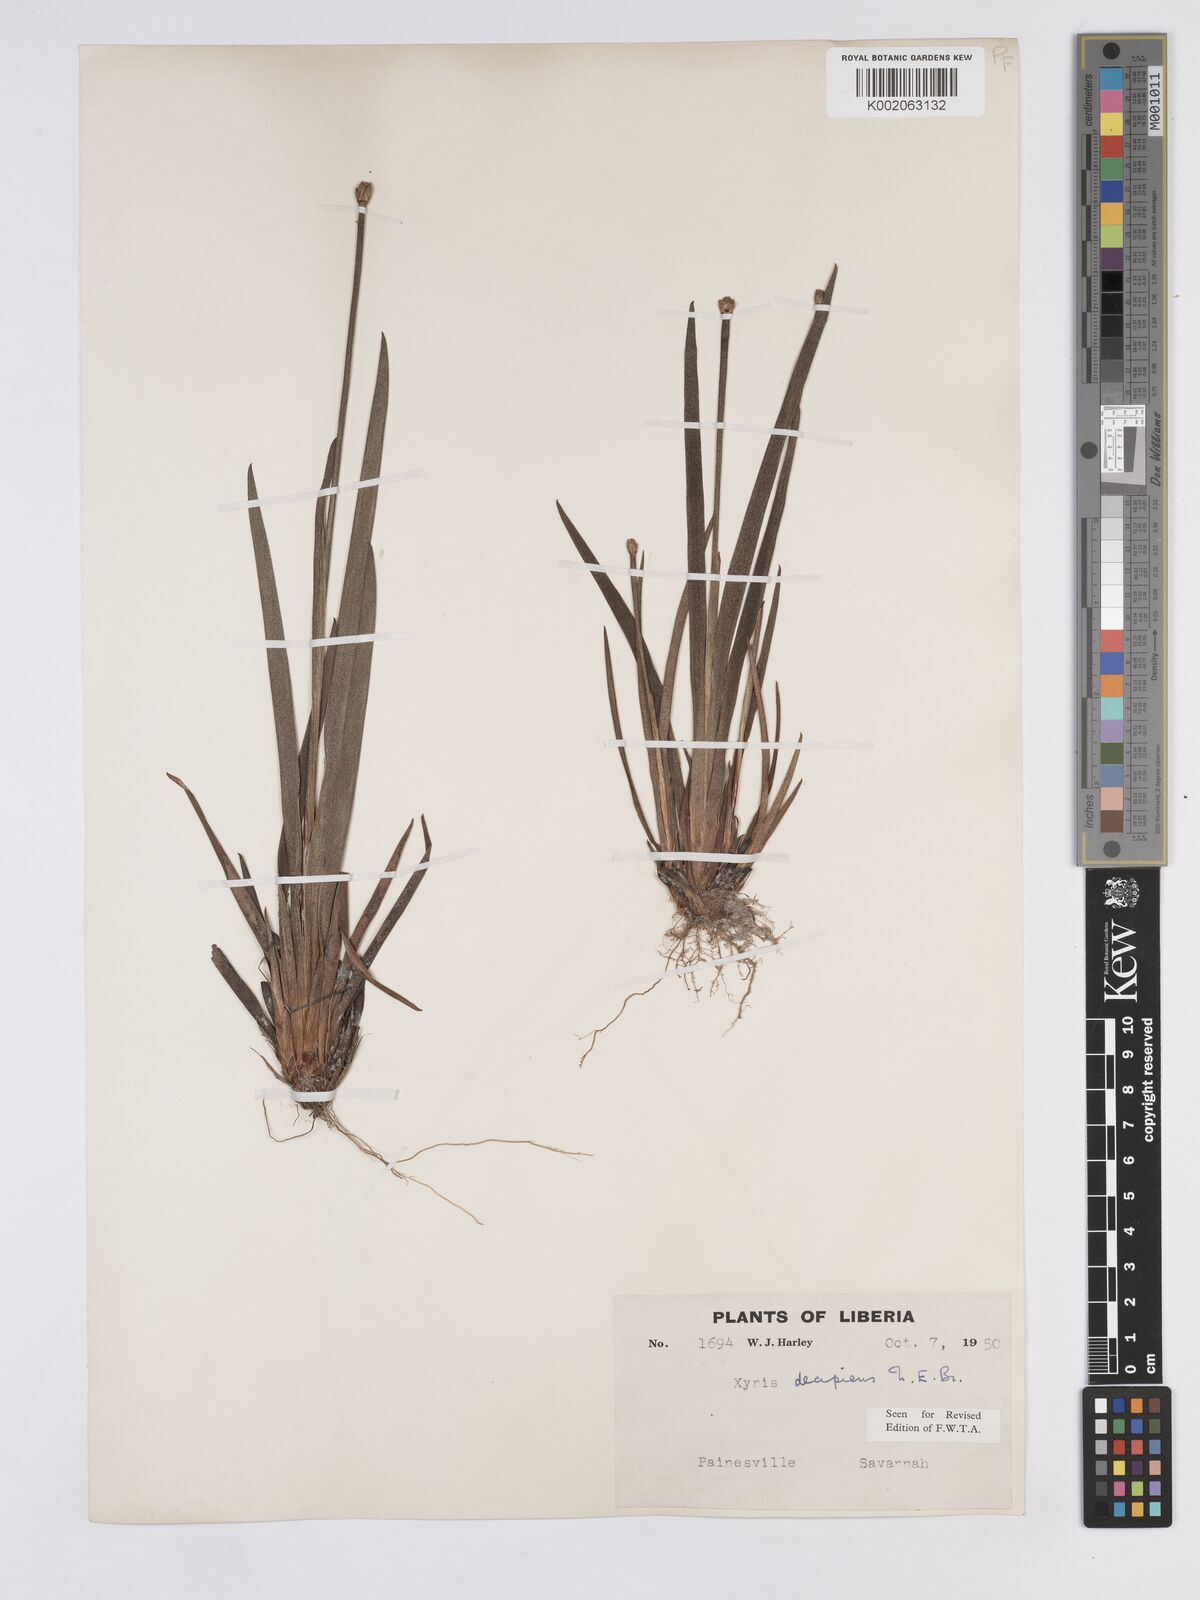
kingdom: Plantae
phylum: Tracheophyta
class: Liliopsida
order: Poales
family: Xyridaceae
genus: Xyris
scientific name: Xyris decipiens
